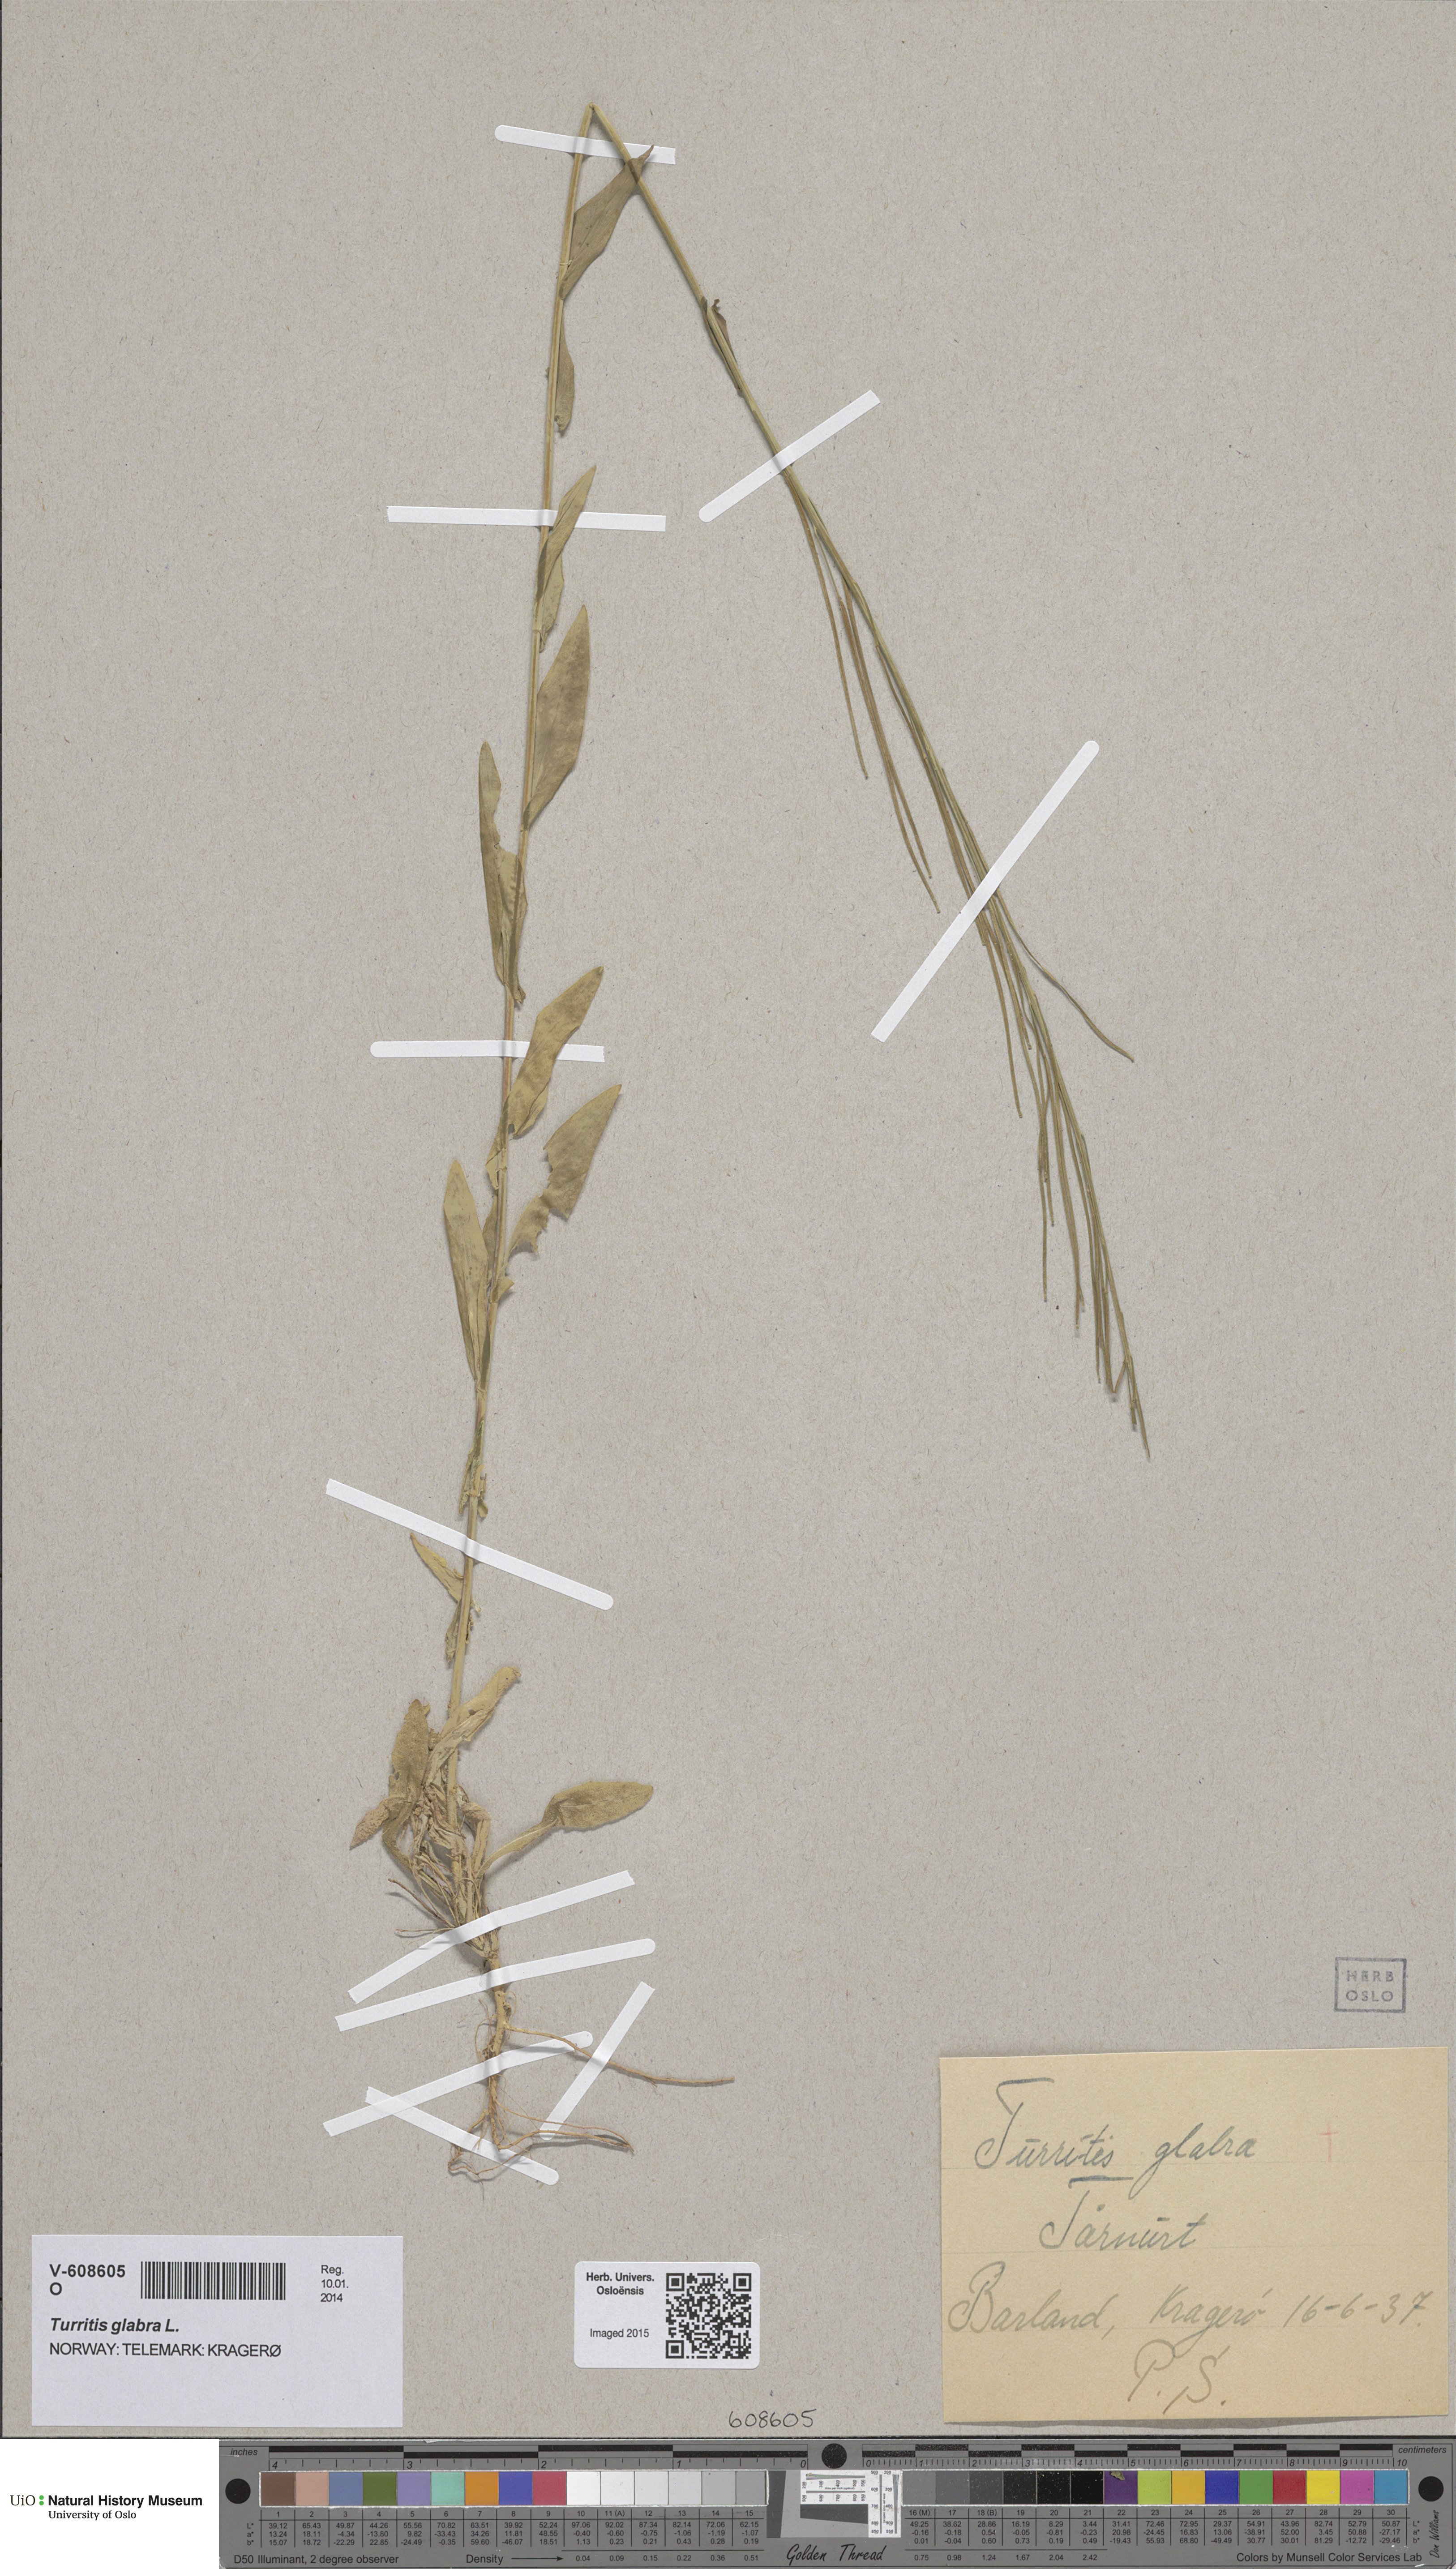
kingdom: Plantae
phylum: Tracheophyta
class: Magnoliopsida
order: Brassicales
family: Brassicaceae
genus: Turritis
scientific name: Turritis glabra
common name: Tower rockcress
